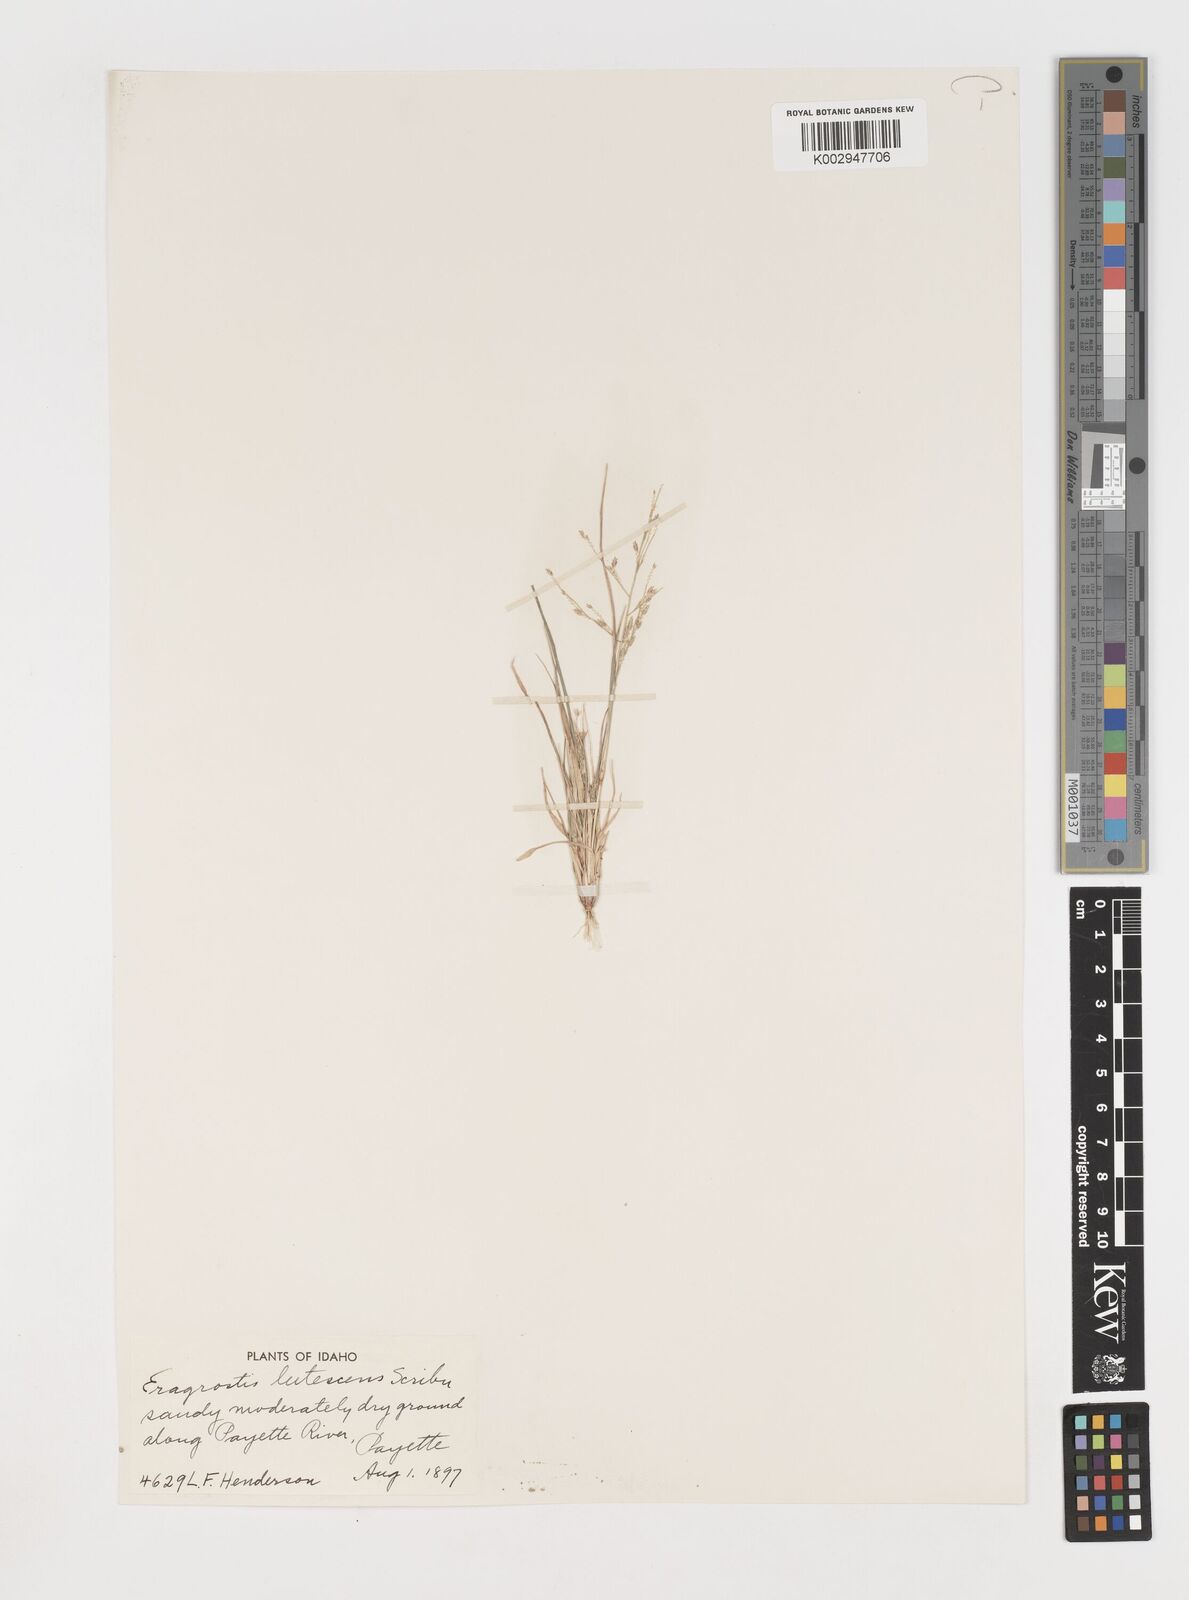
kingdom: Plantae
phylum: Tracheophyta
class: Liliopsida
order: Poales
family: Poaceae
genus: Eragrostis
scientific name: Eragrostis lutescens
